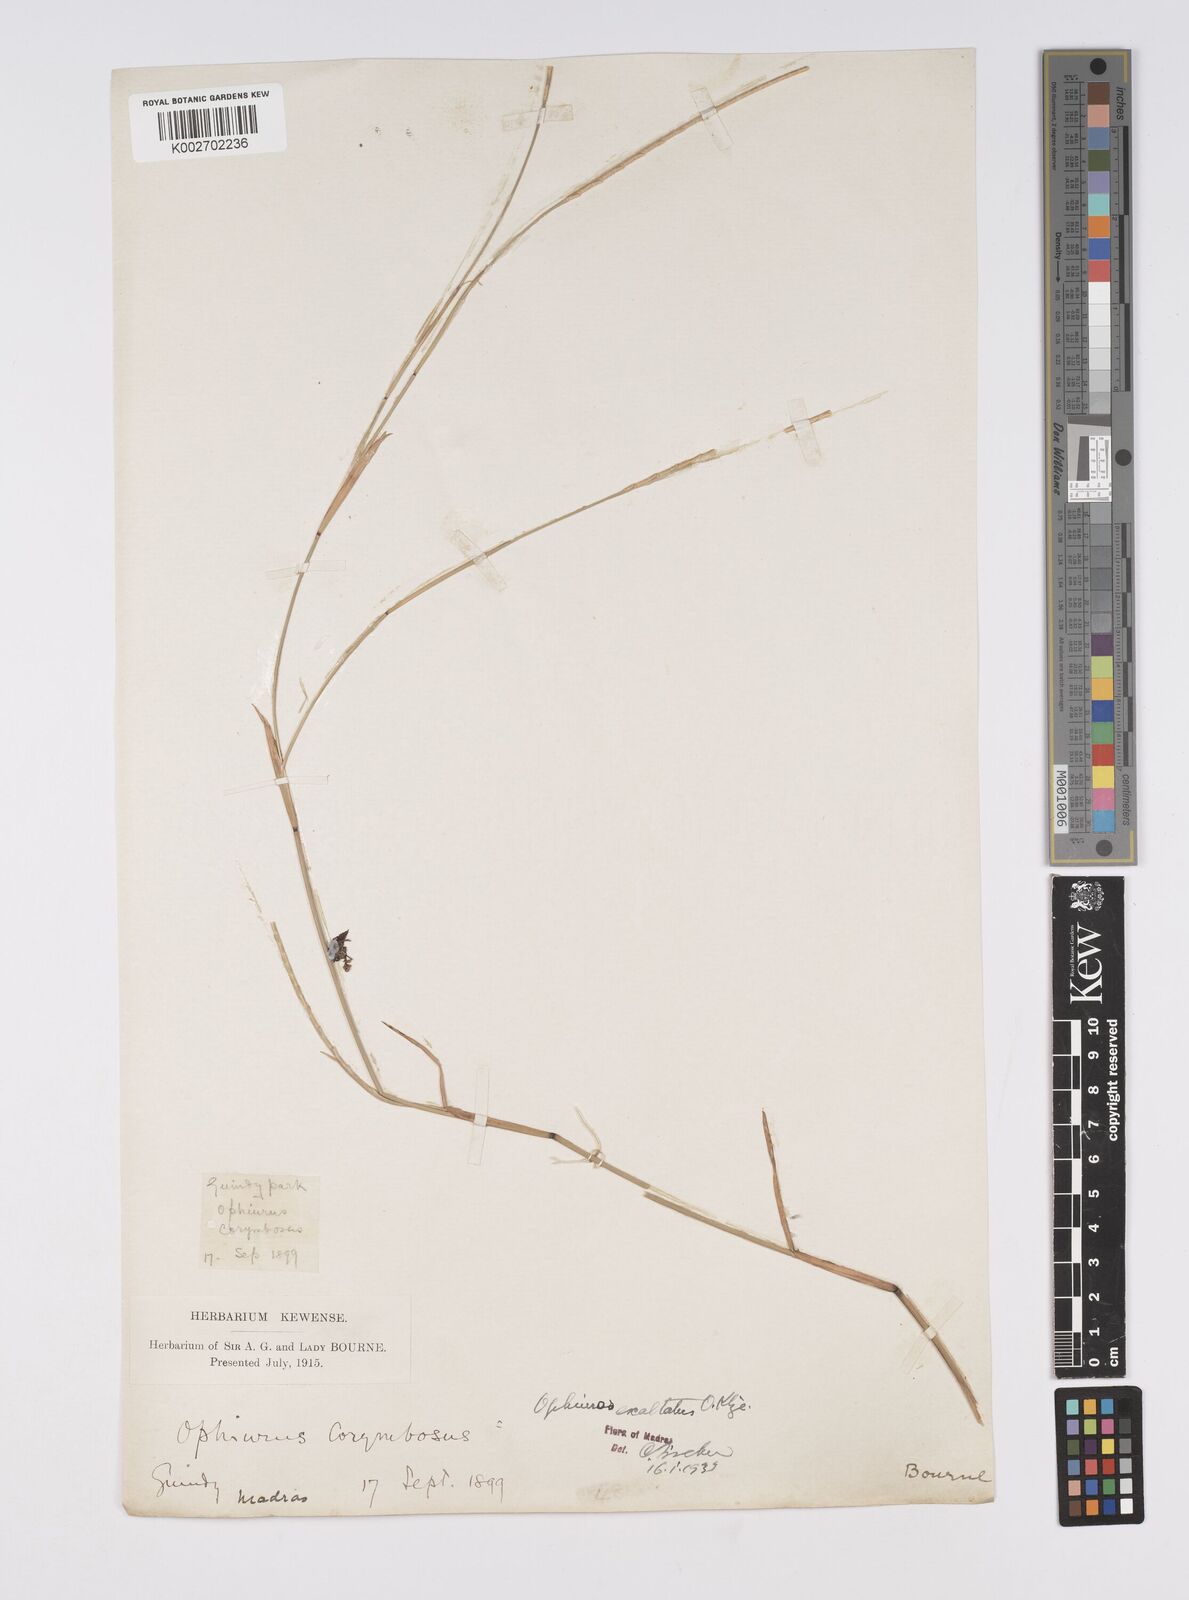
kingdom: Plantae
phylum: Tracheophyta
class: Liliopsida
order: Poales
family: Poaceae
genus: Ophiuros
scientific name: Ophiuros exaltatus
